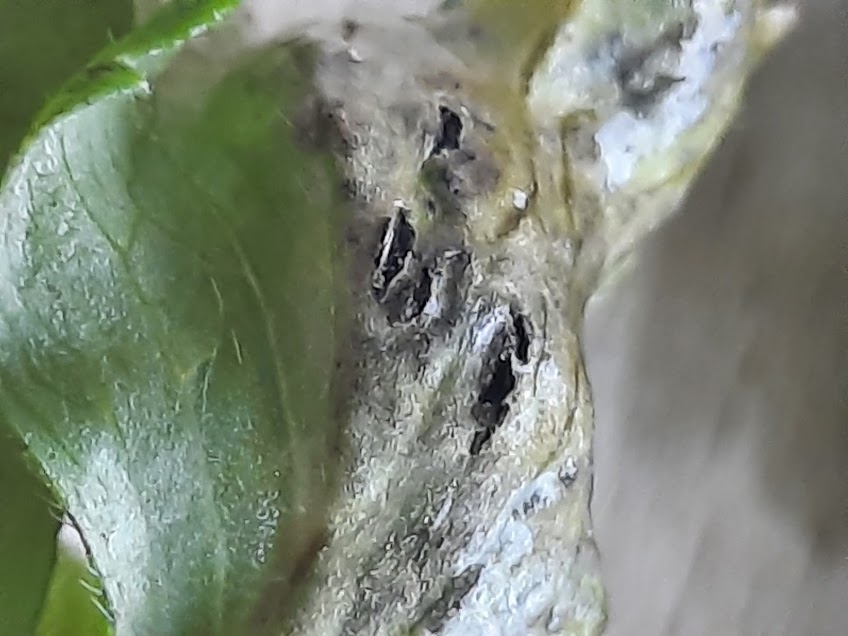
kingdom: Fungi
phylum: Basidiomycota
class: Ustilaginomycetes
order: Urocystidales
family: Urocystidaceae
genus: Urocystis
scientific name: Urocystis anemones
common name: anemone-brand
